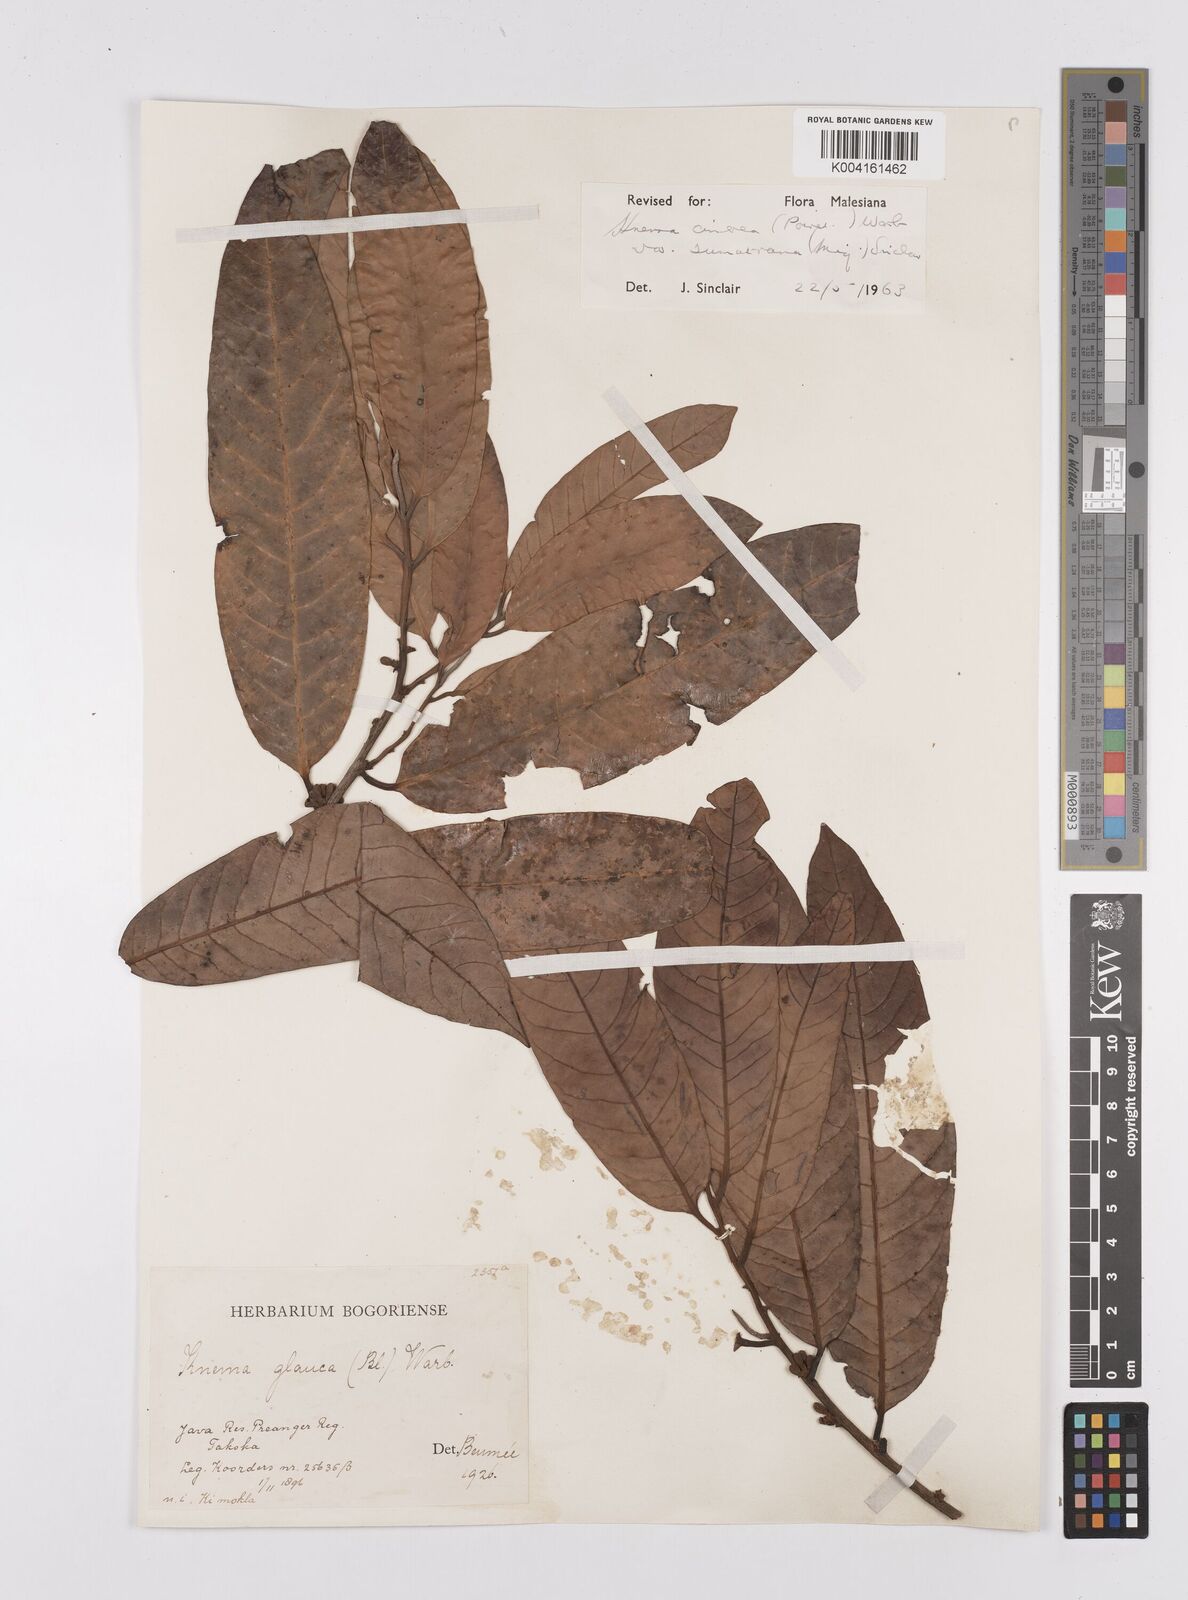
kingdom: Plantae
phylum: Tracheophyta
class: Magnoliopsida
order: Magnoliales
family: Myristicaceae
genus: Knema
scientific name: Knema
